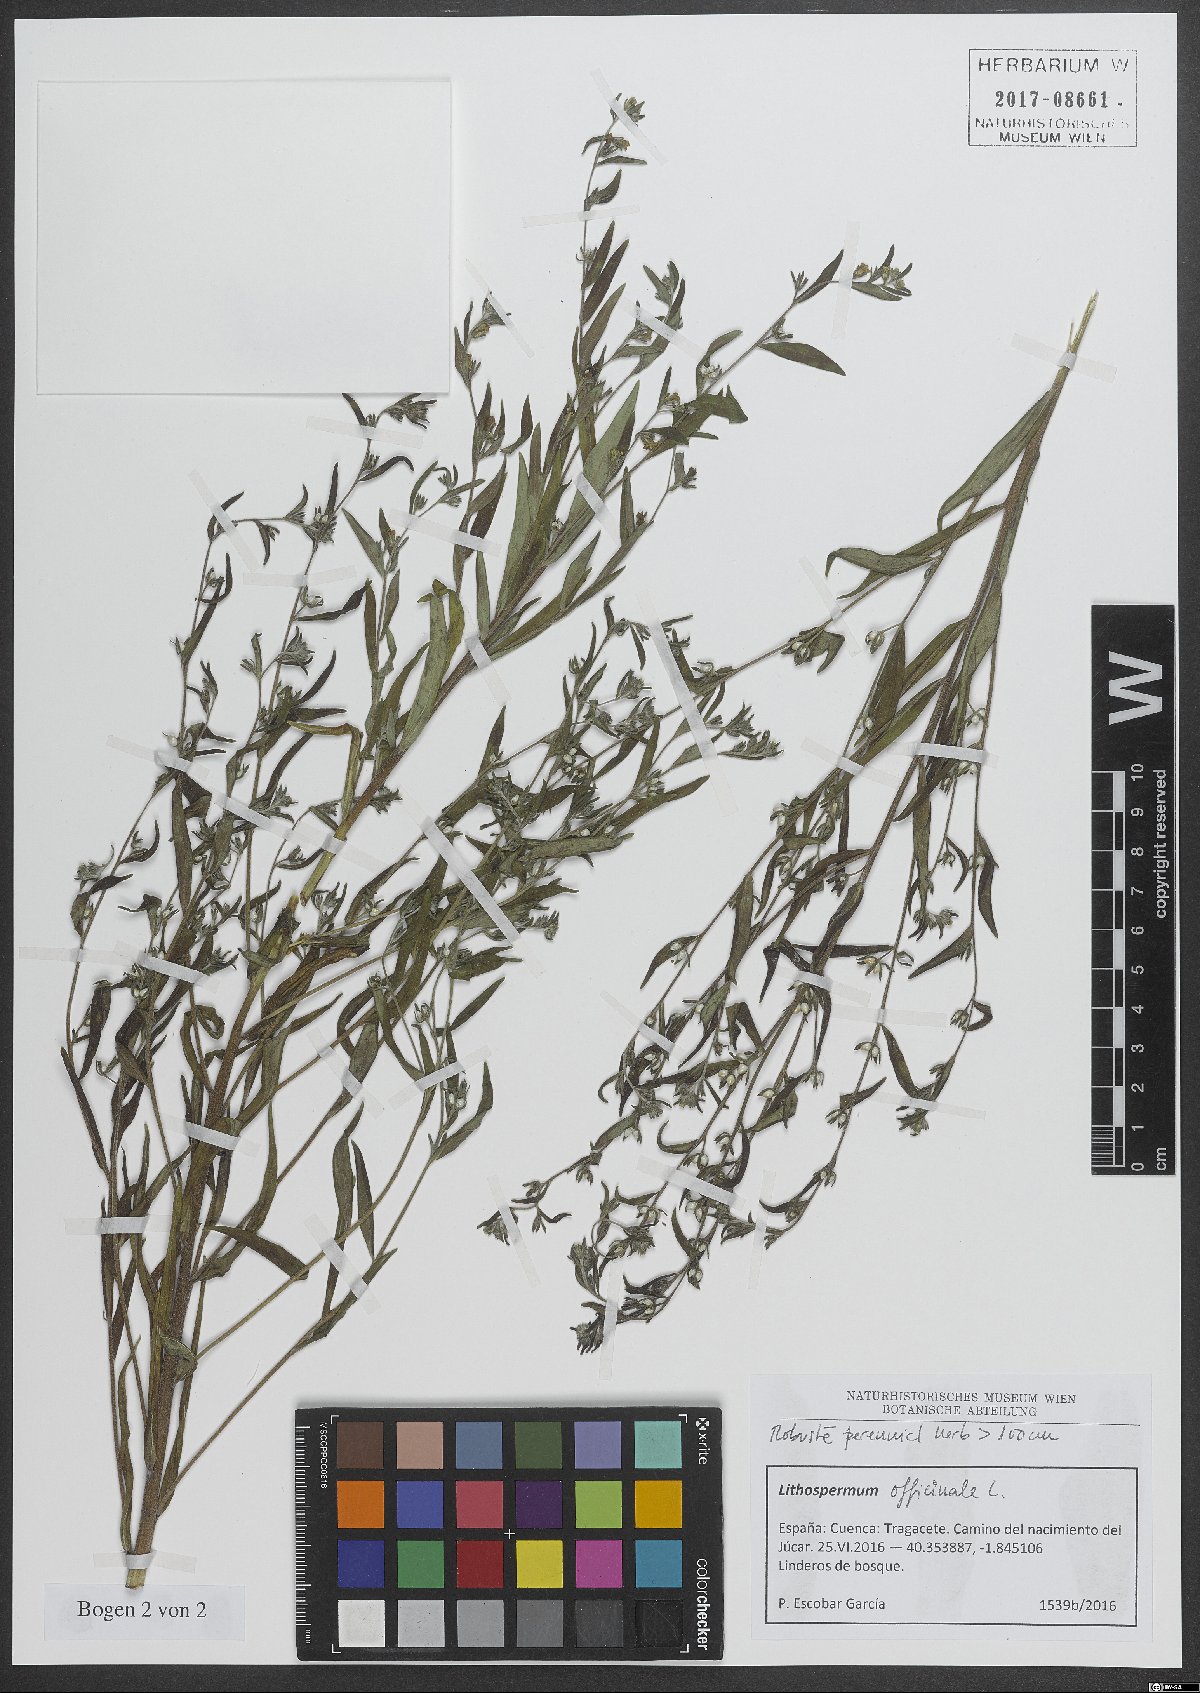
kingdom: Plantae
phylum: Tracheophyta
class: Magnoliopsida
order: Boraginales
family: Boraginaceae
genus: Lithospermum
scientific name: Lithospermum officinale
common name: Common gromwell
